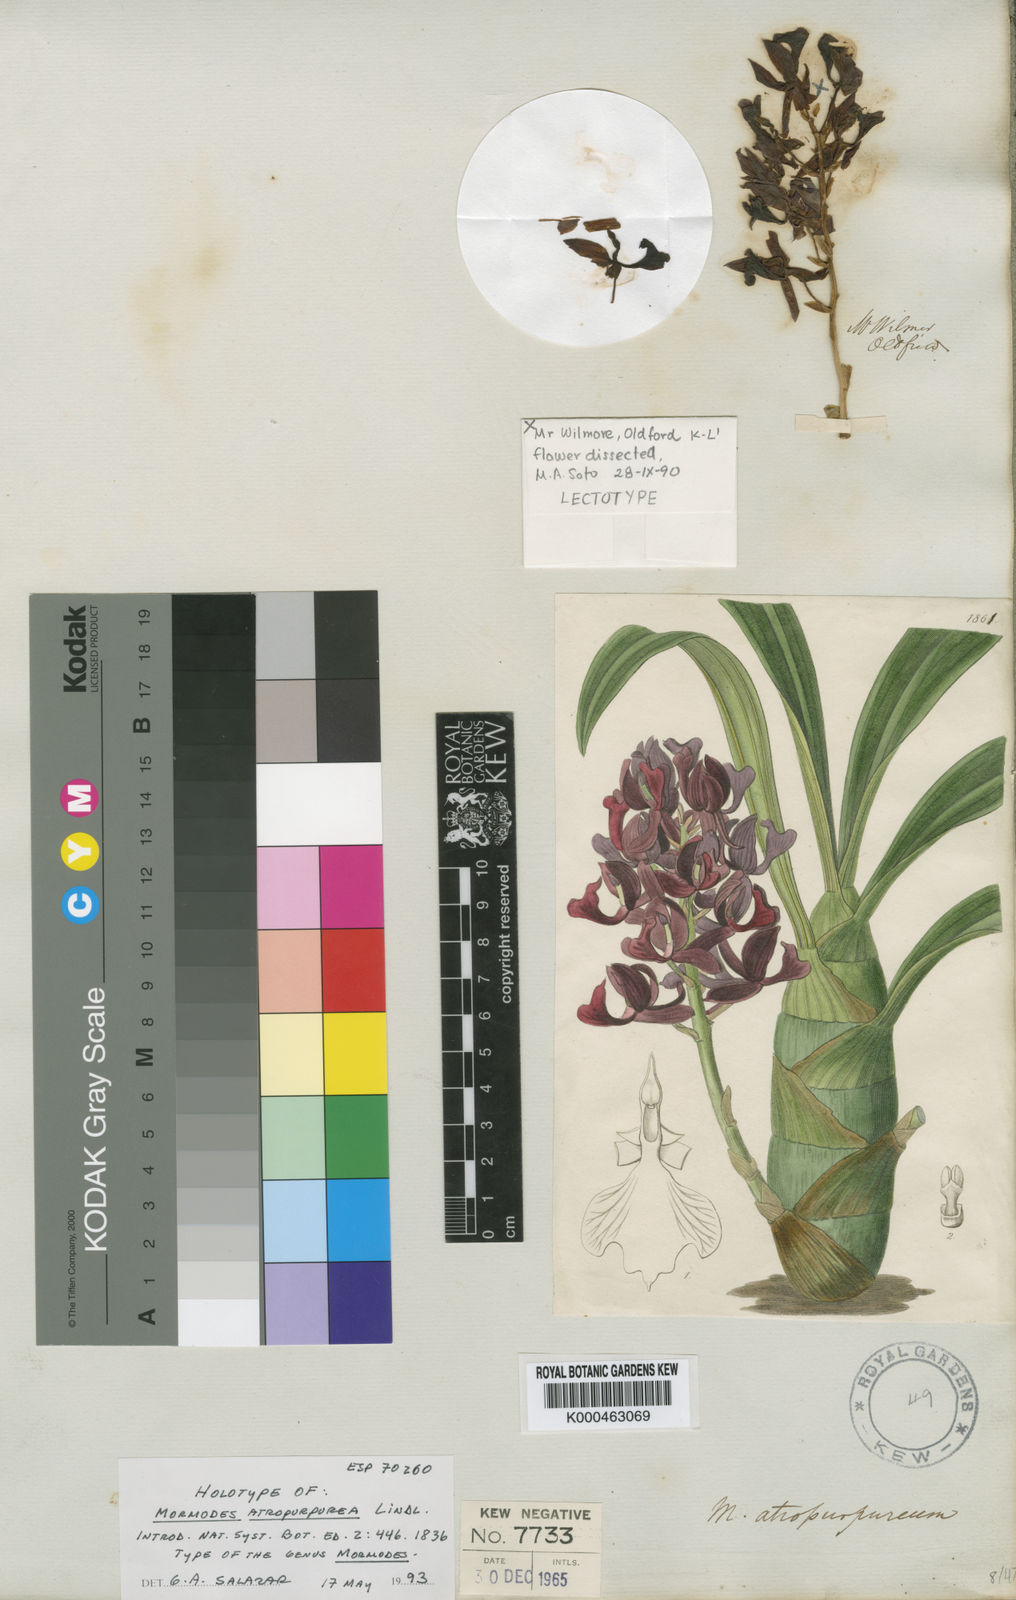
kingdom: Plantae
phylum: Tracheophyta
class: Liliopsida
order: Asparagales
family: Orchidaceae
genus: Mormodes
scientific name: Mormodes
